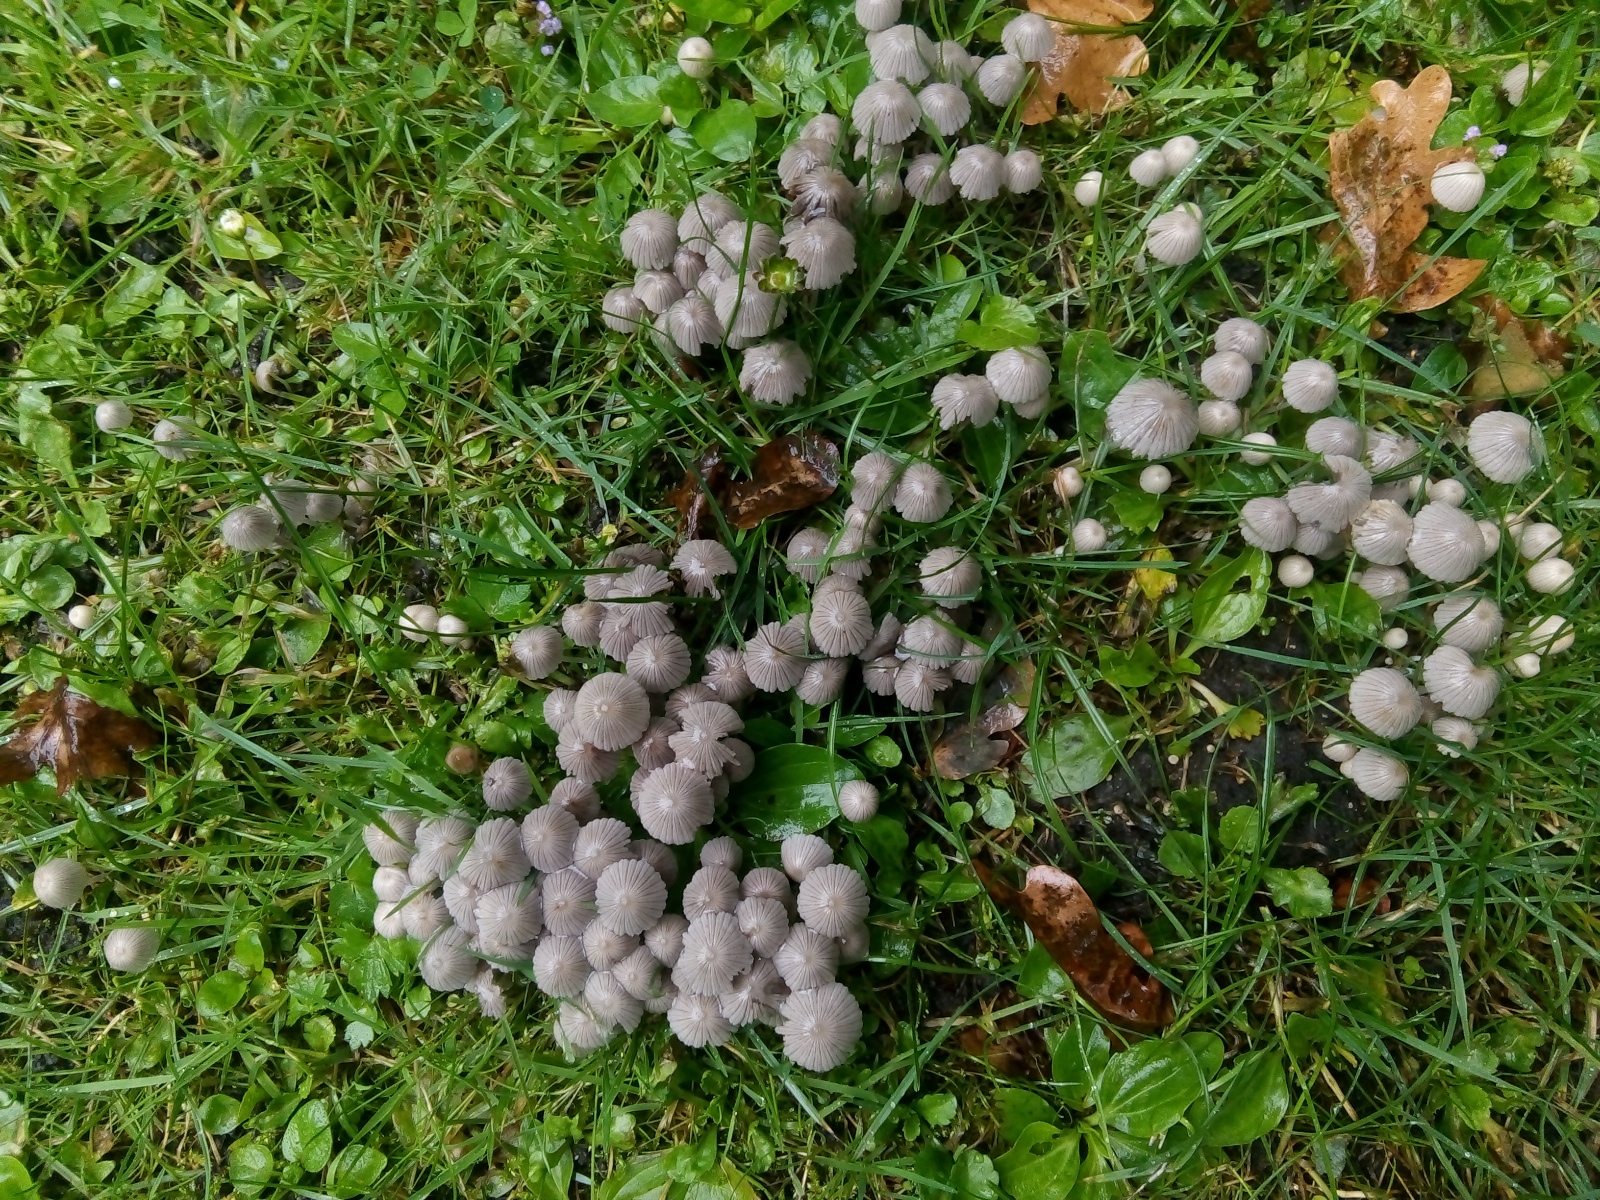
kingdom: Fungi
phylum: Basidiomycota
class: Agaricomycetes
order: Agaricales
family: Psathyrellaceae
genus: Coprinellus
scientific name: Coprinellus disseminatus
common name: bredsået blækhat
